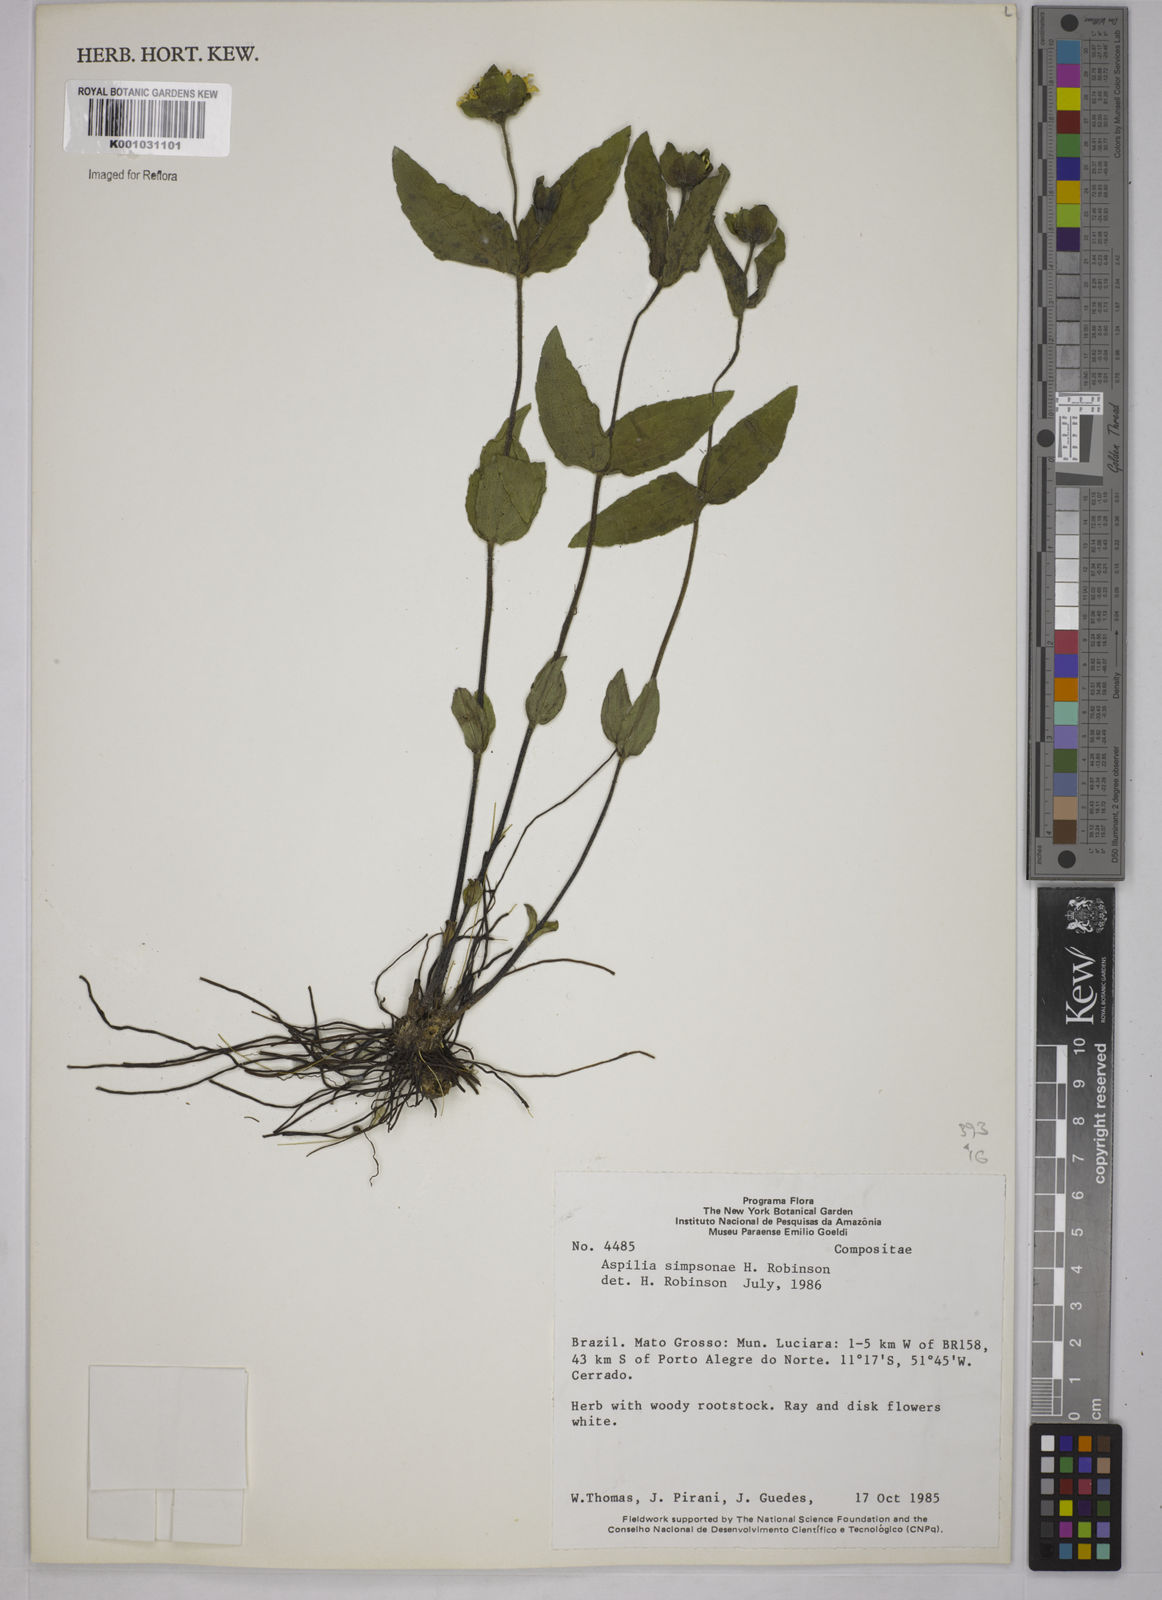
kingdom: Plantae
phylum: Tracheophyta
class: Magnoliopsida
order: Asterales
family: Asteraceae
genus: Wedelia
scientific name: Wedelia simpsoniae
